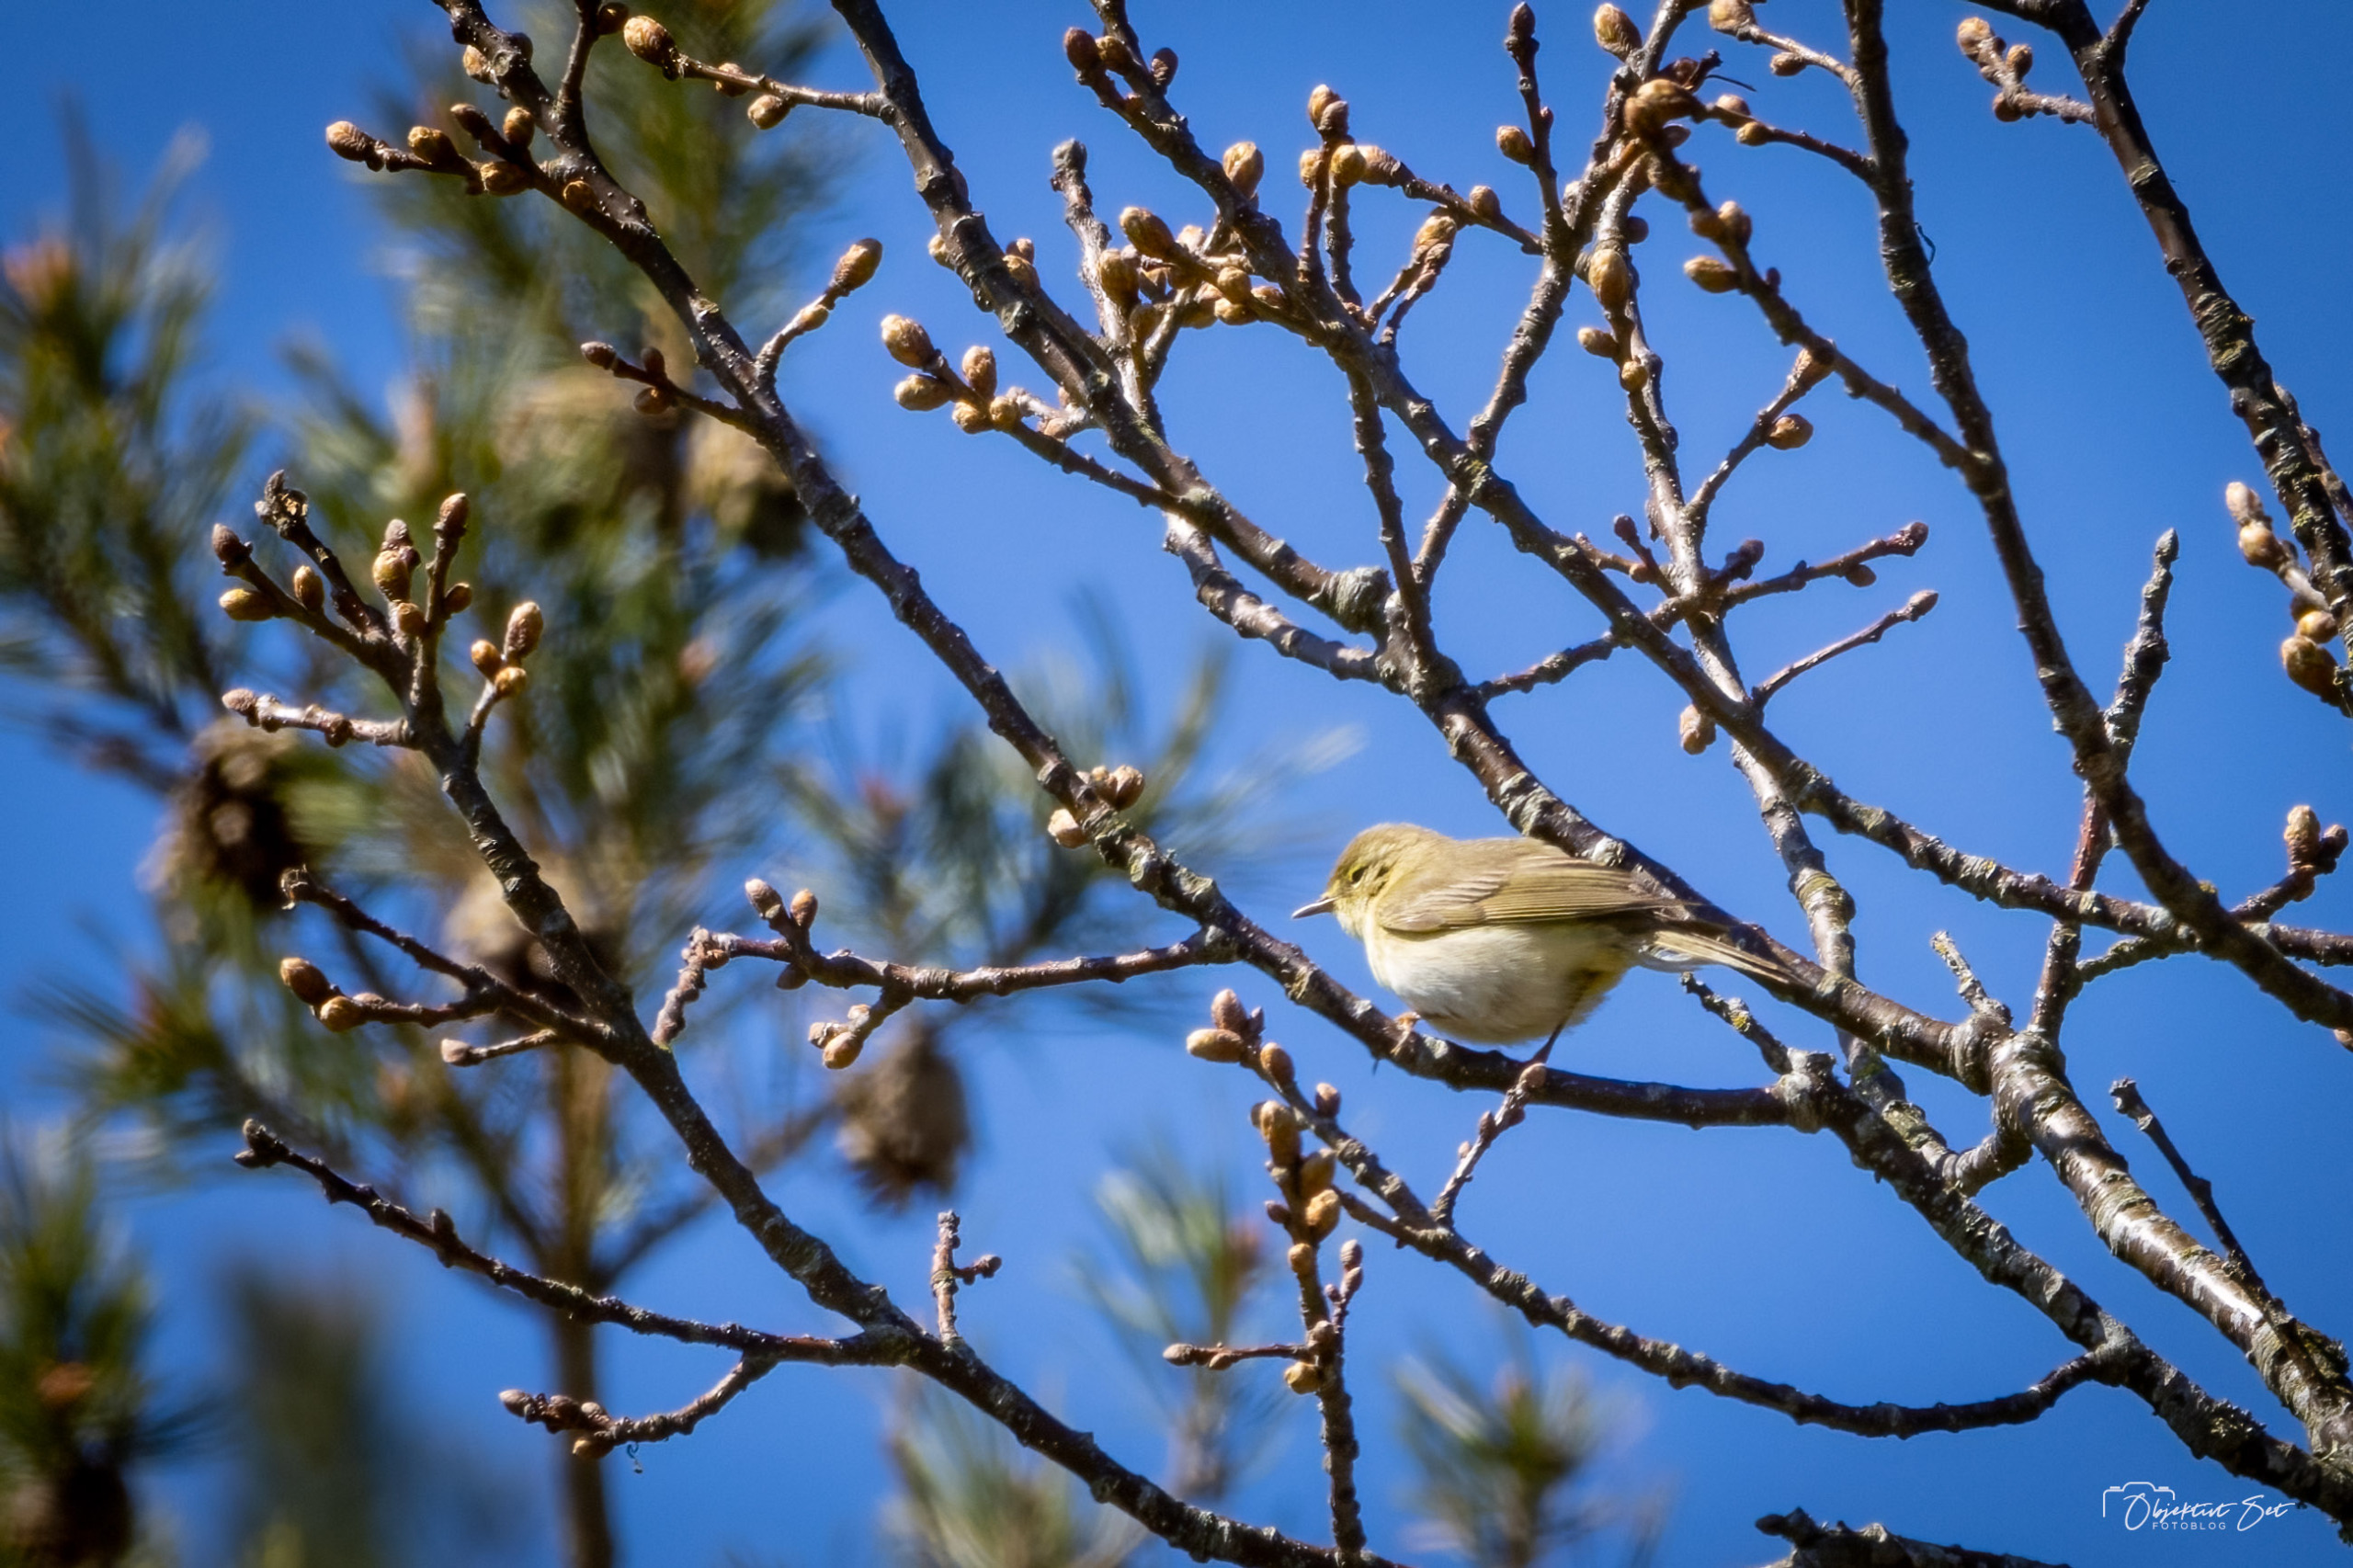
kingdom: Animalia
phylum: Chordata
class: Aves
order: Passeriformes
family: Phylloscopidae
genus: Phylloscopus
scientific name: Phylloscopus trochilus
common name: Løvsanger
